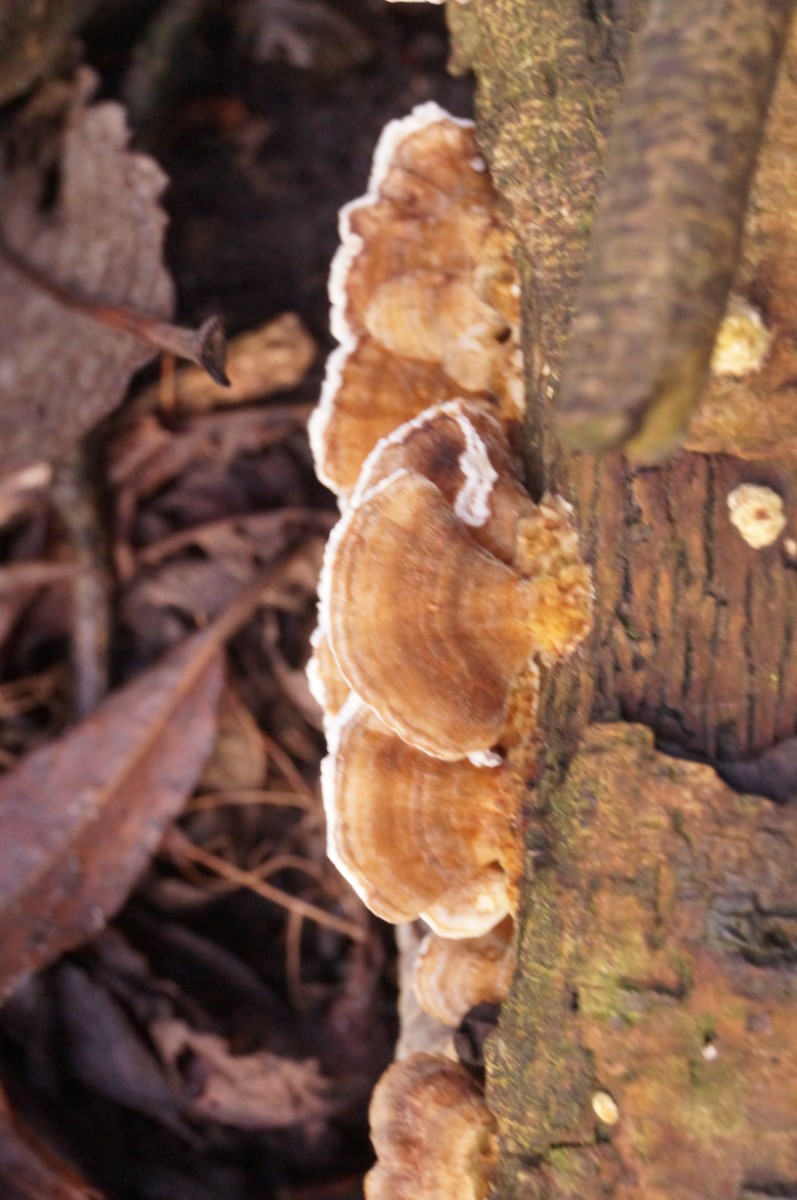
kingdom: Fungi
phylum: Basidiomycota
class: Agaricomycetes
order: Polyporales
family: Polyporaceae
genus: Trametes
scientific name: Trametes ochracea
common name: bæltet læderporesvamp
